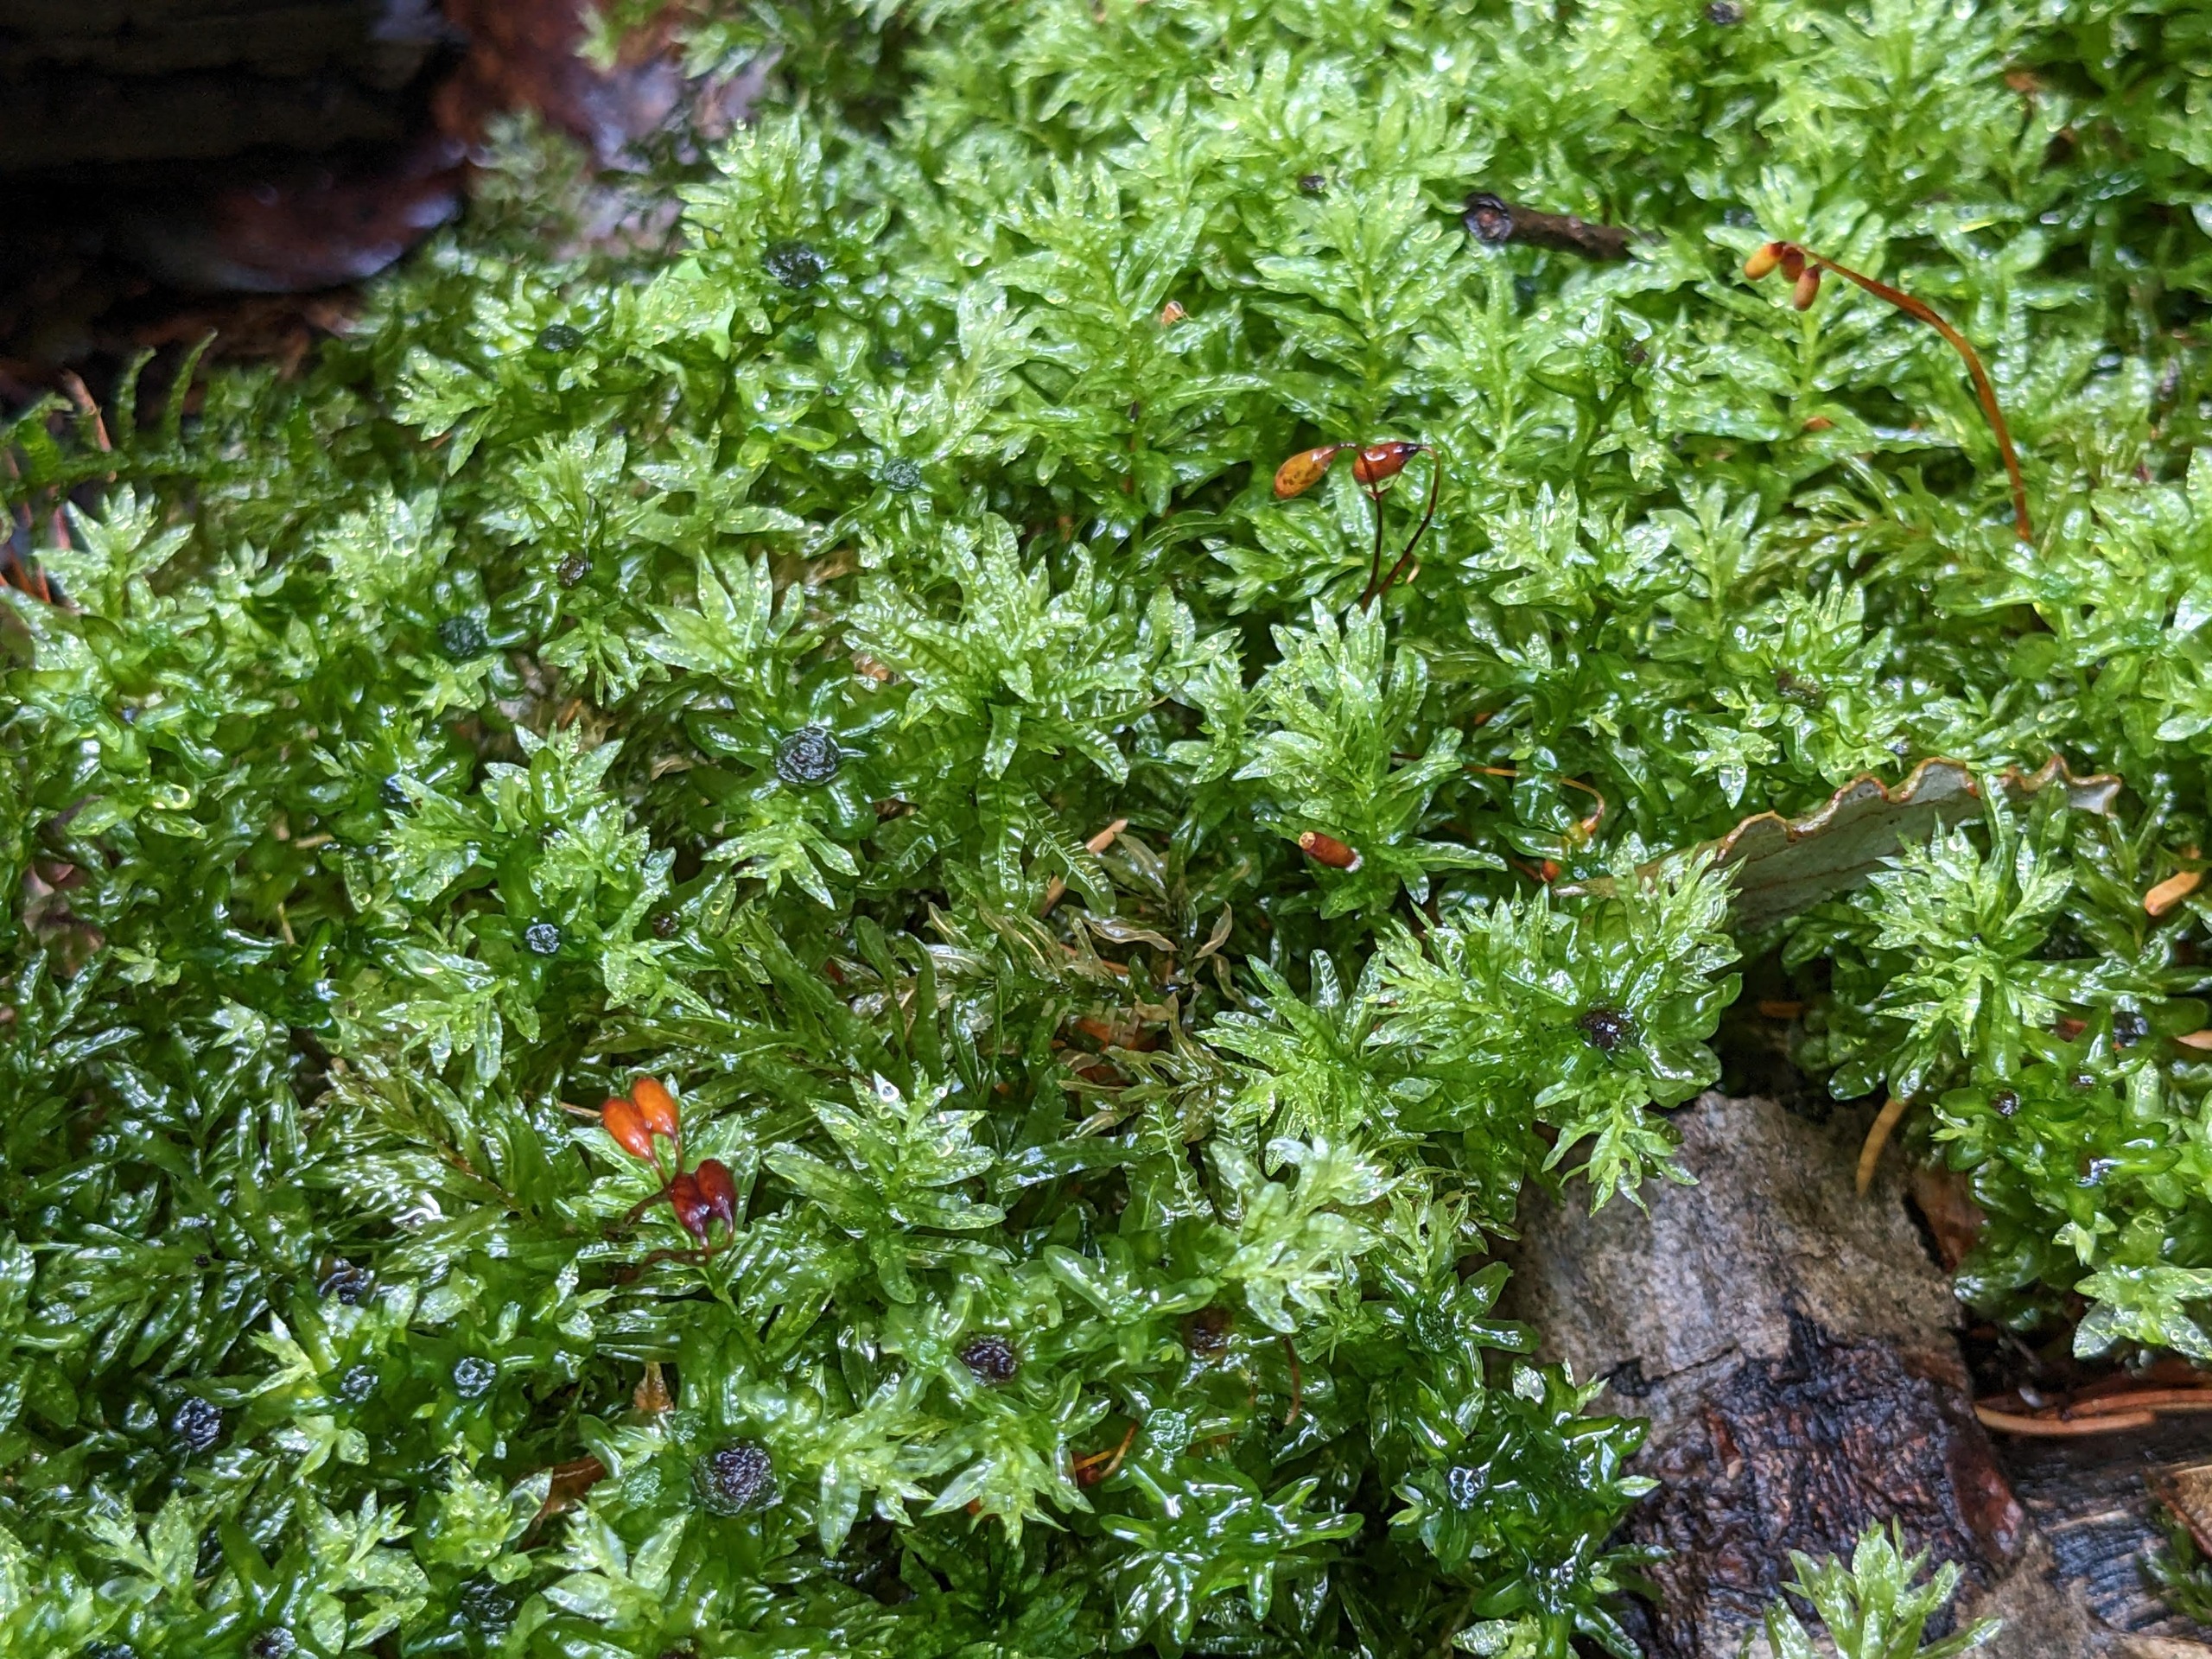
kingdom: Plantae
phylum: Bryophyta
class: Bryopsida
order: Bryales
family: Mniaceae
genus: Plagiomnium
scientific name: Plagiomnium undulatum
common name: Bølget krybstjerne
